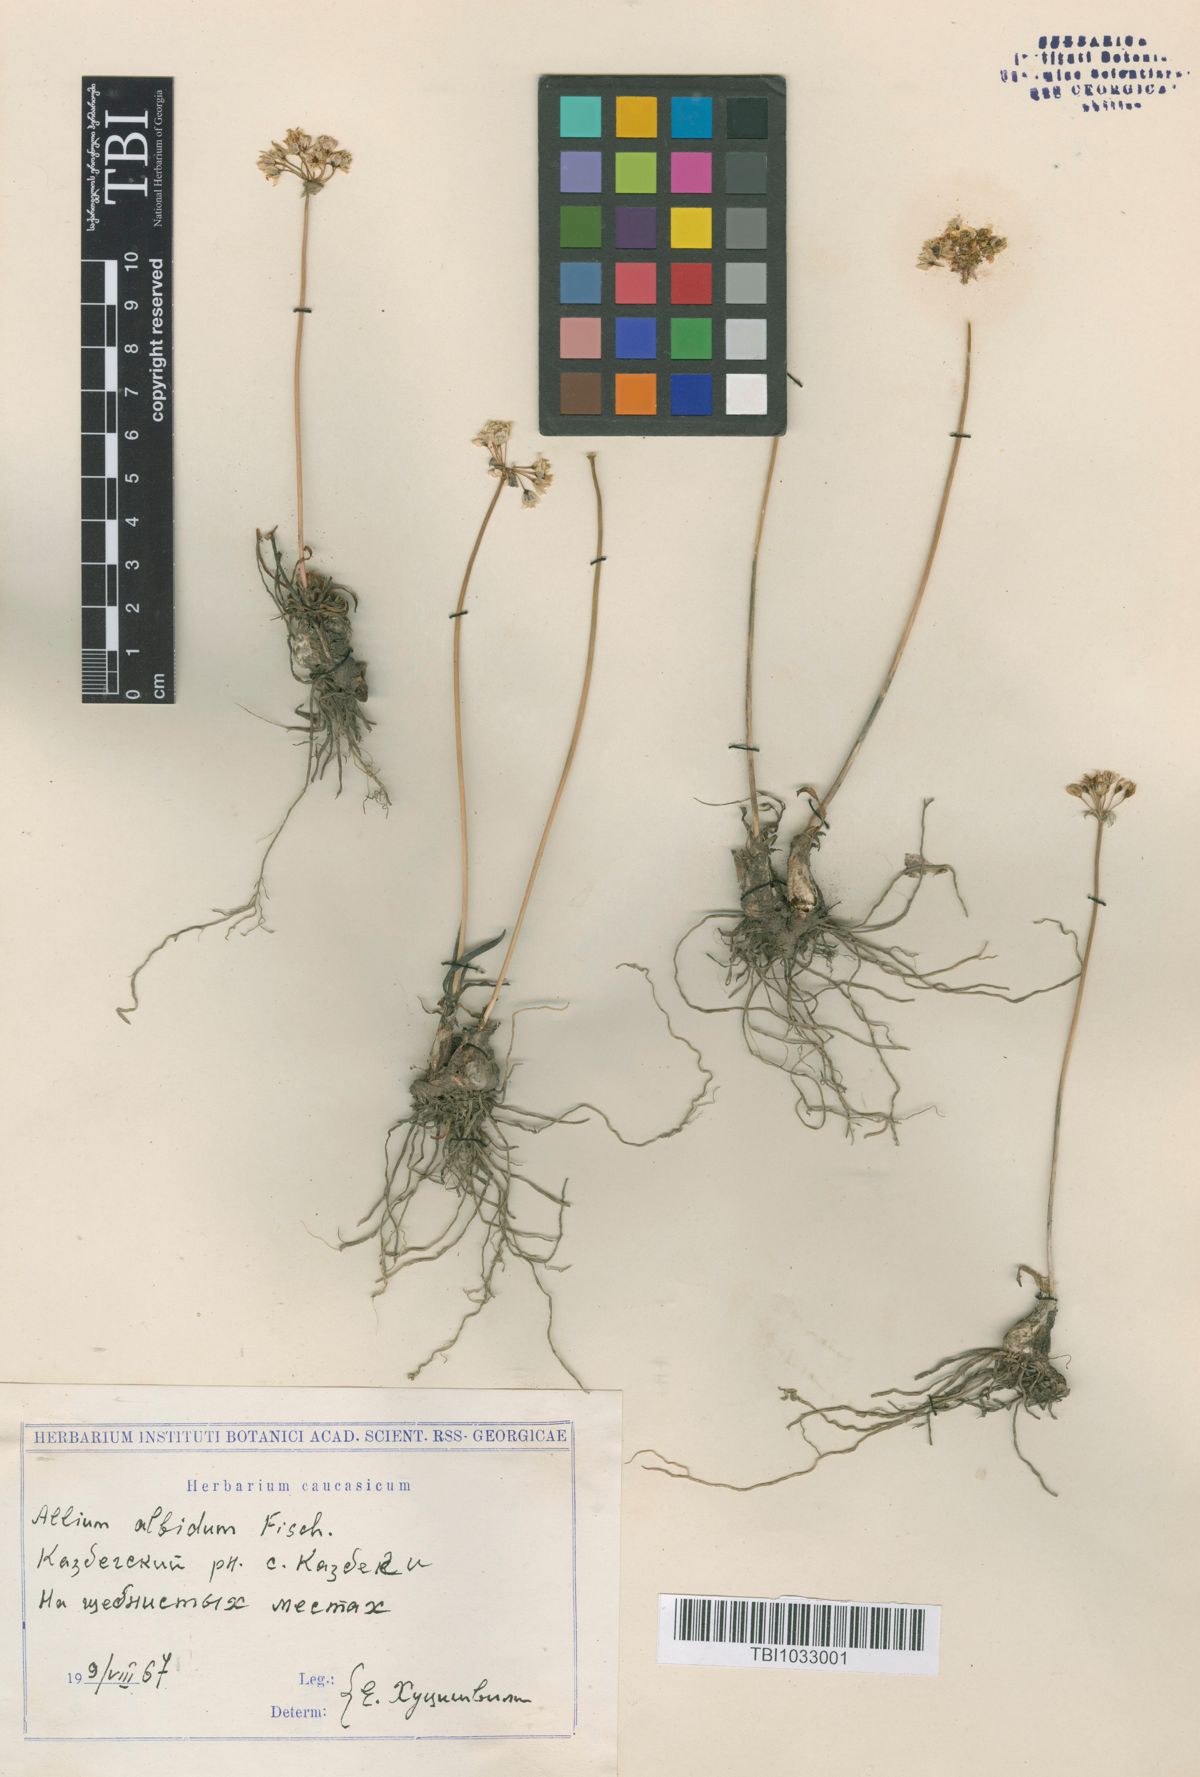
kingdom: Plantae
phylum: Tracheophyta
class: Liliopsida
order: Asparagales
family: Amaryllidaceae
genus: Allium
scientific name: Allium denudatum
